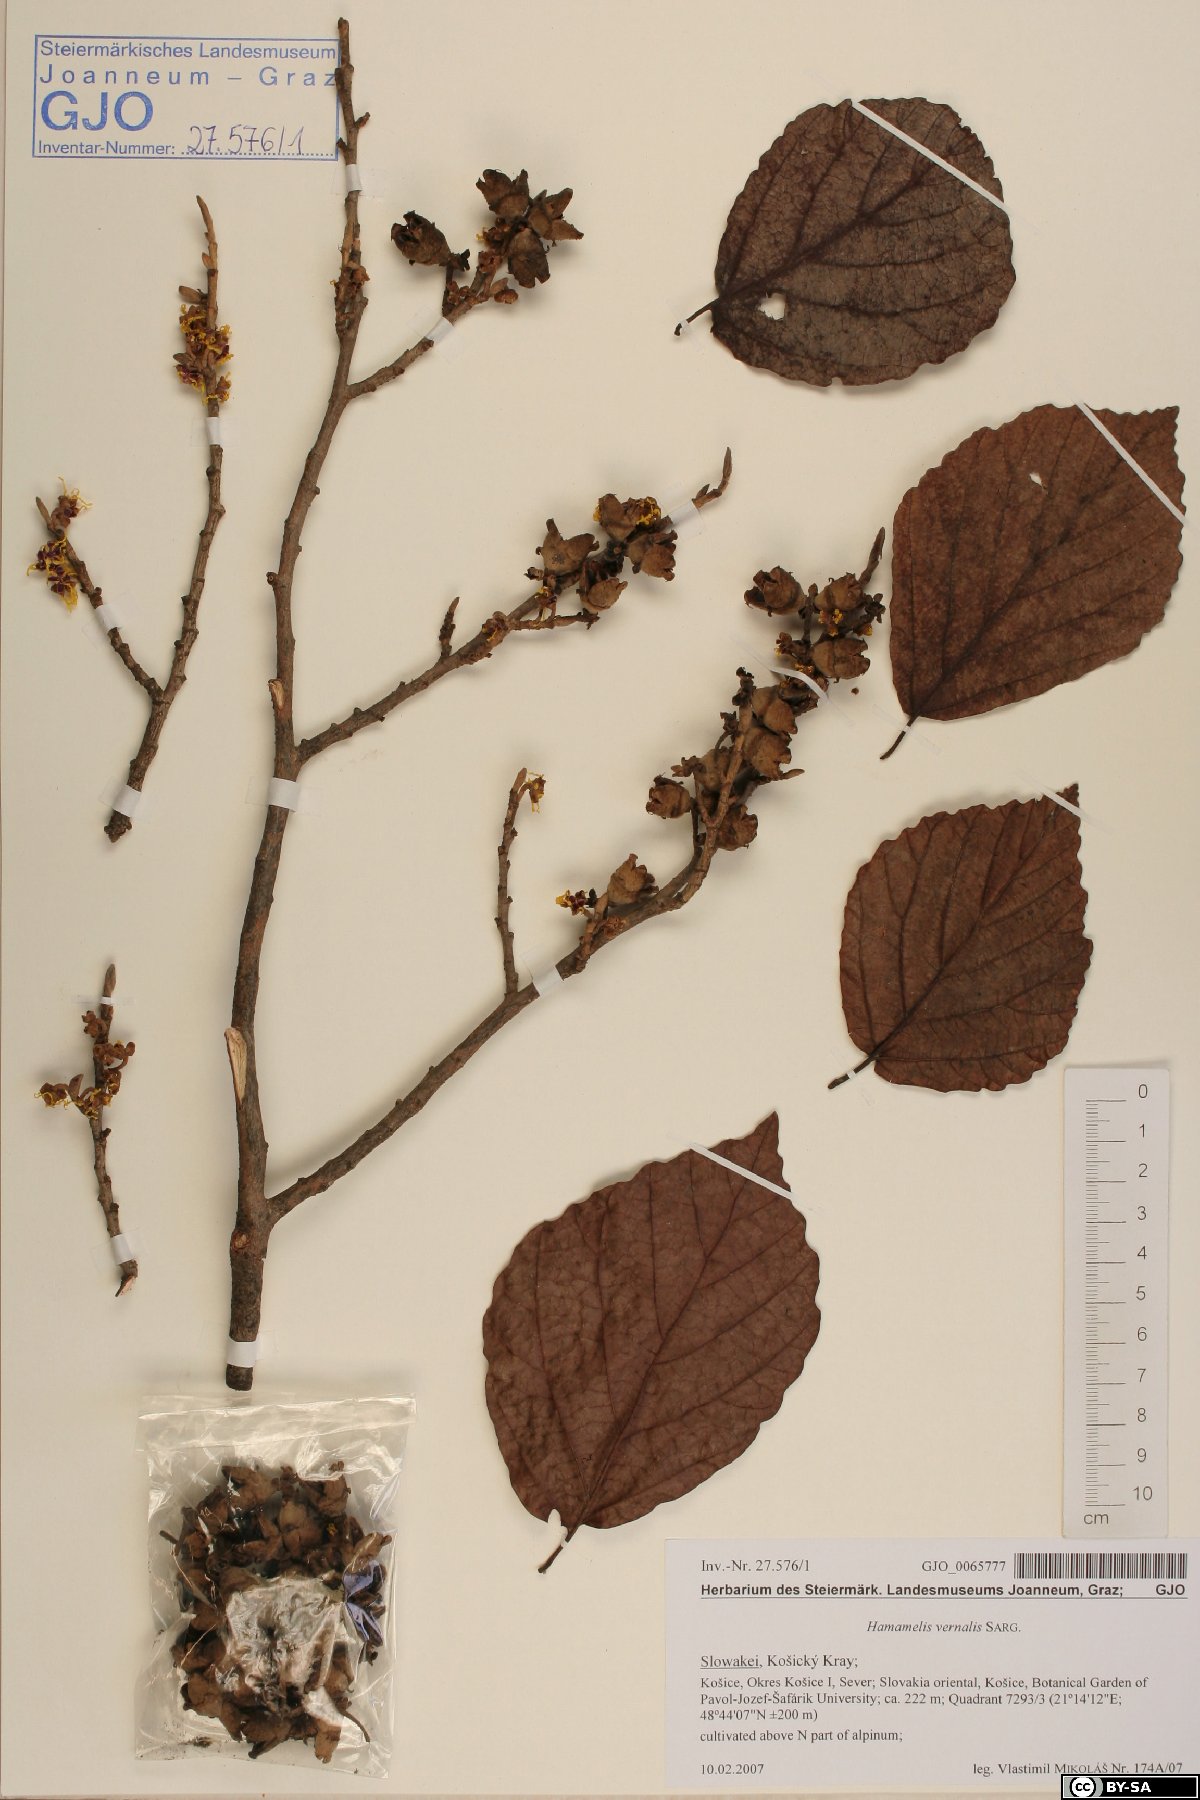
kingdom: Plantae
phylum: Tracheophyta
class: Magnoliopsida
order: Saxifragales
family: Hamamelidaceae
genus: Hamamelis
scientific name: Hamamelis vernalis
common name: Ozark witch-hazel
